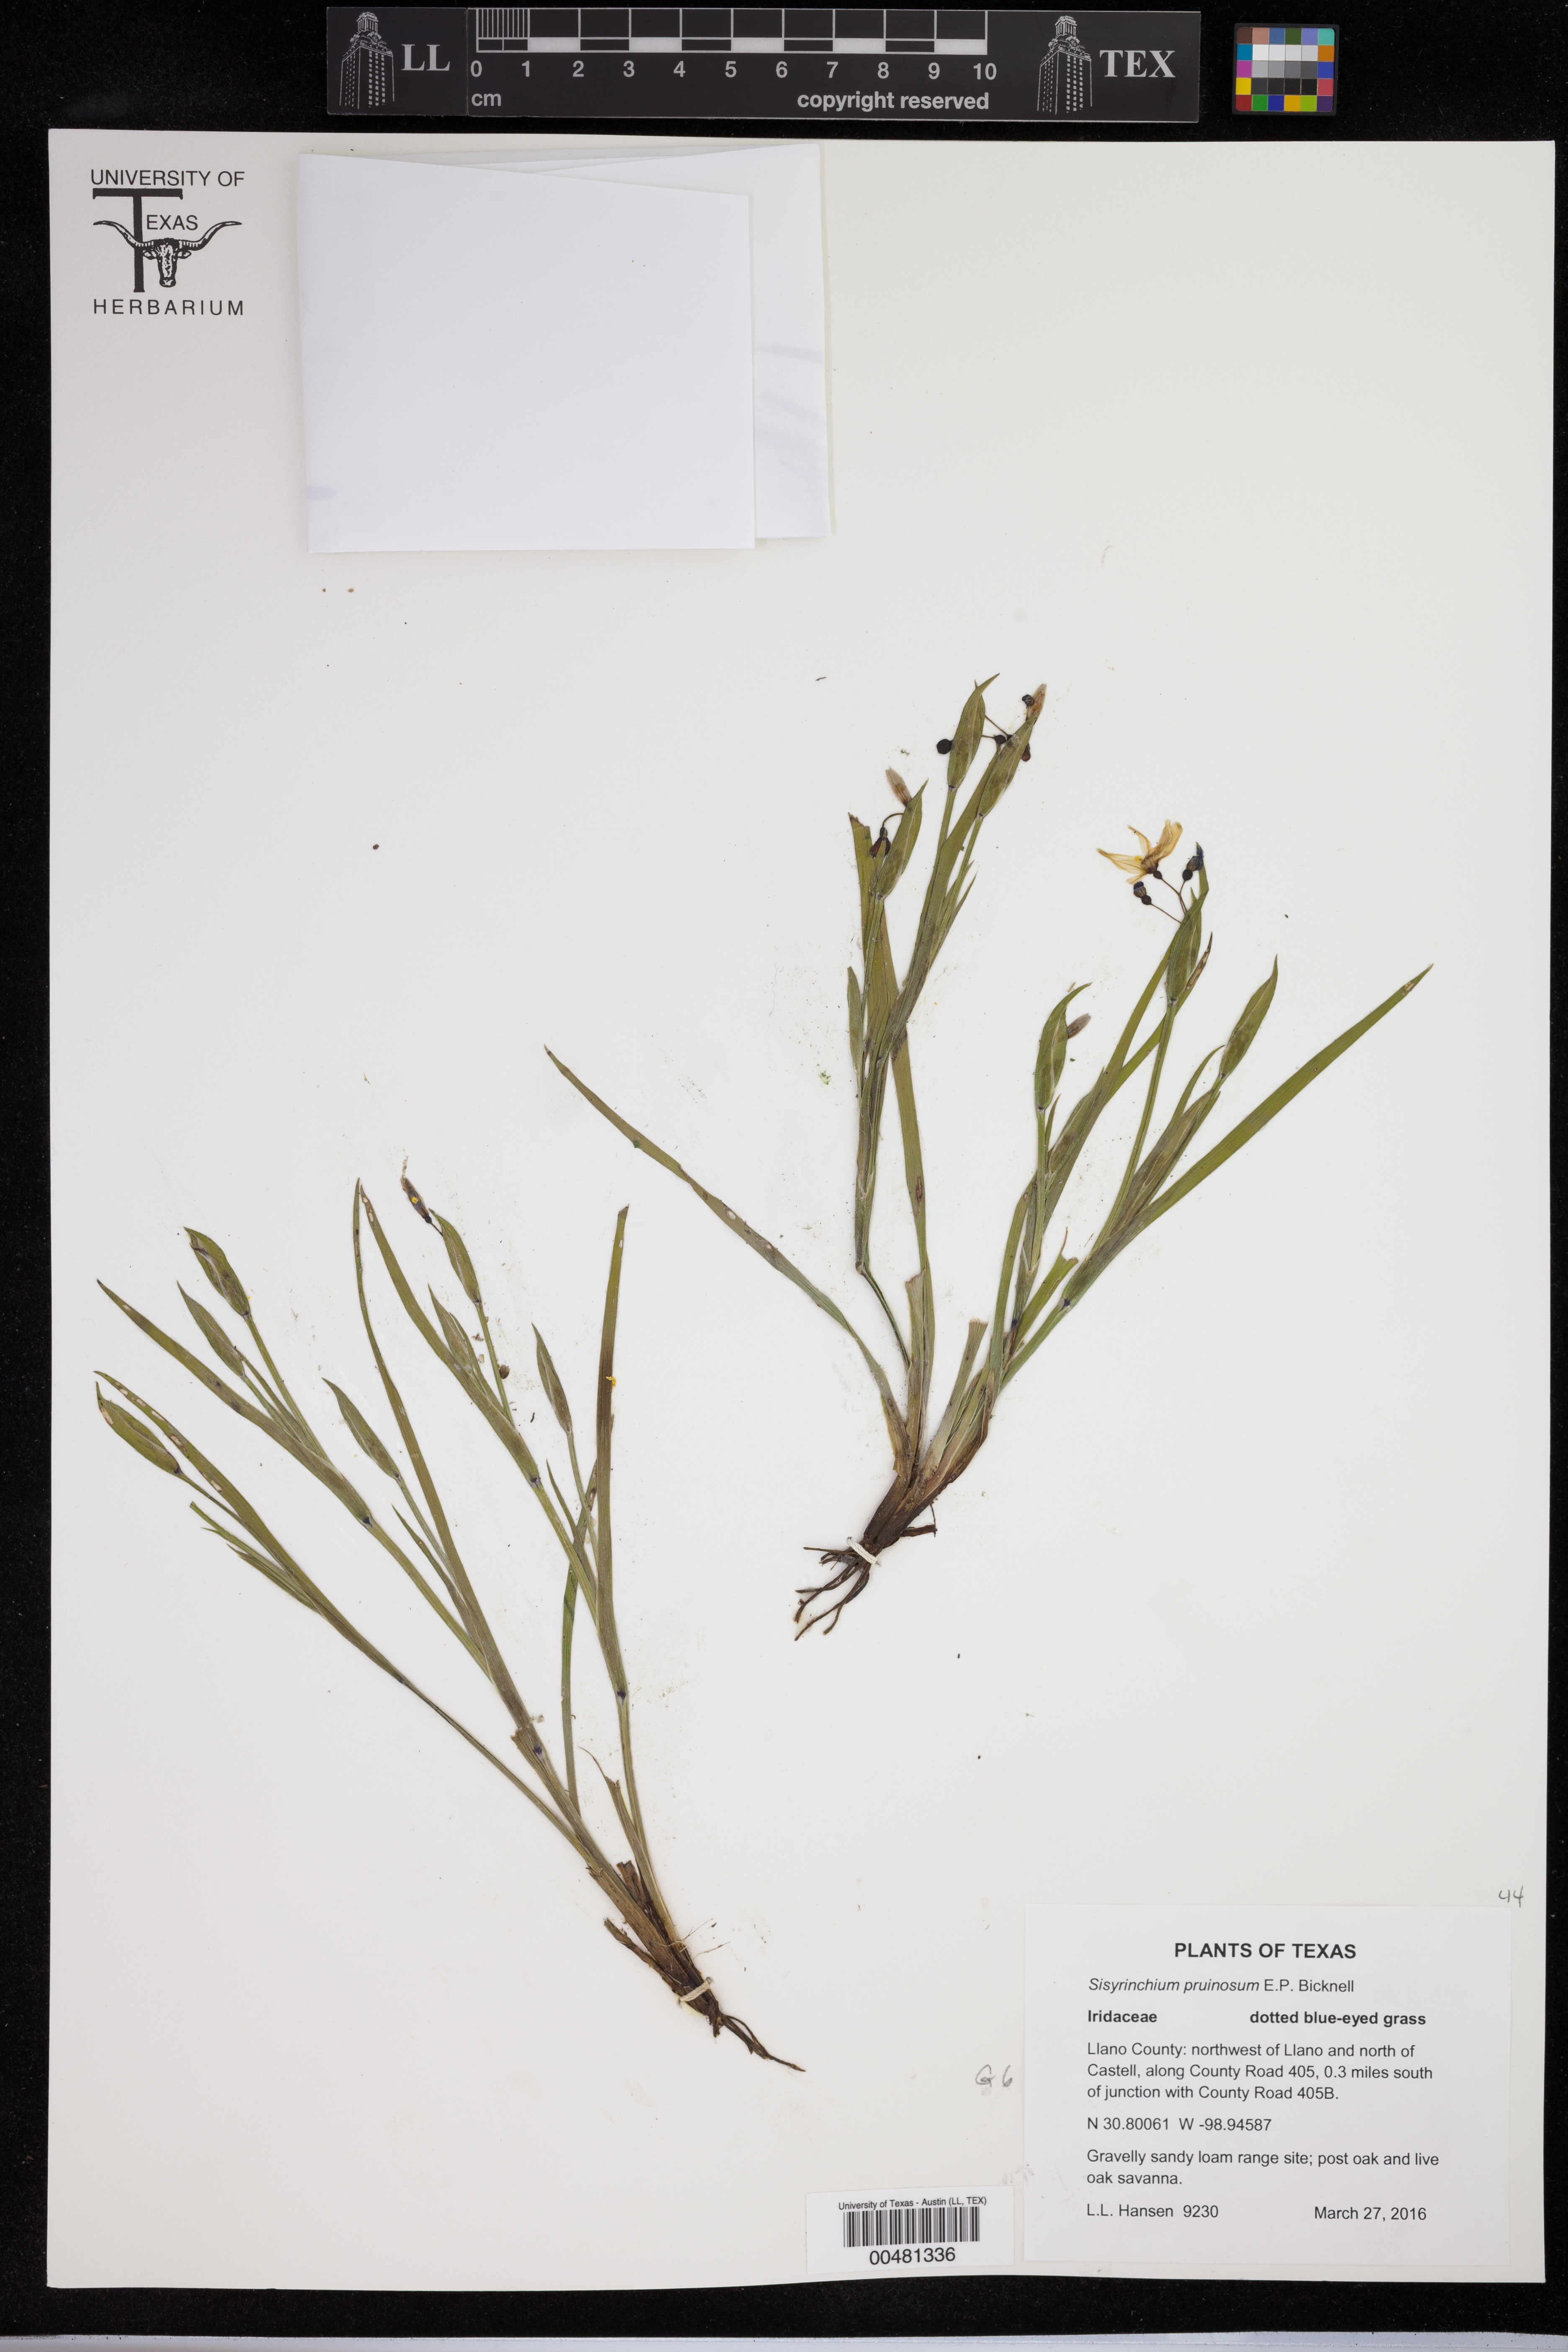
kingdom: Plantae
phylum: Tracheophyta
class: Liliopsida
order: Asparagales
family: Iridaceae
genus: Sisyrinchium
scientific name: Sisyrinchium pruinosum
